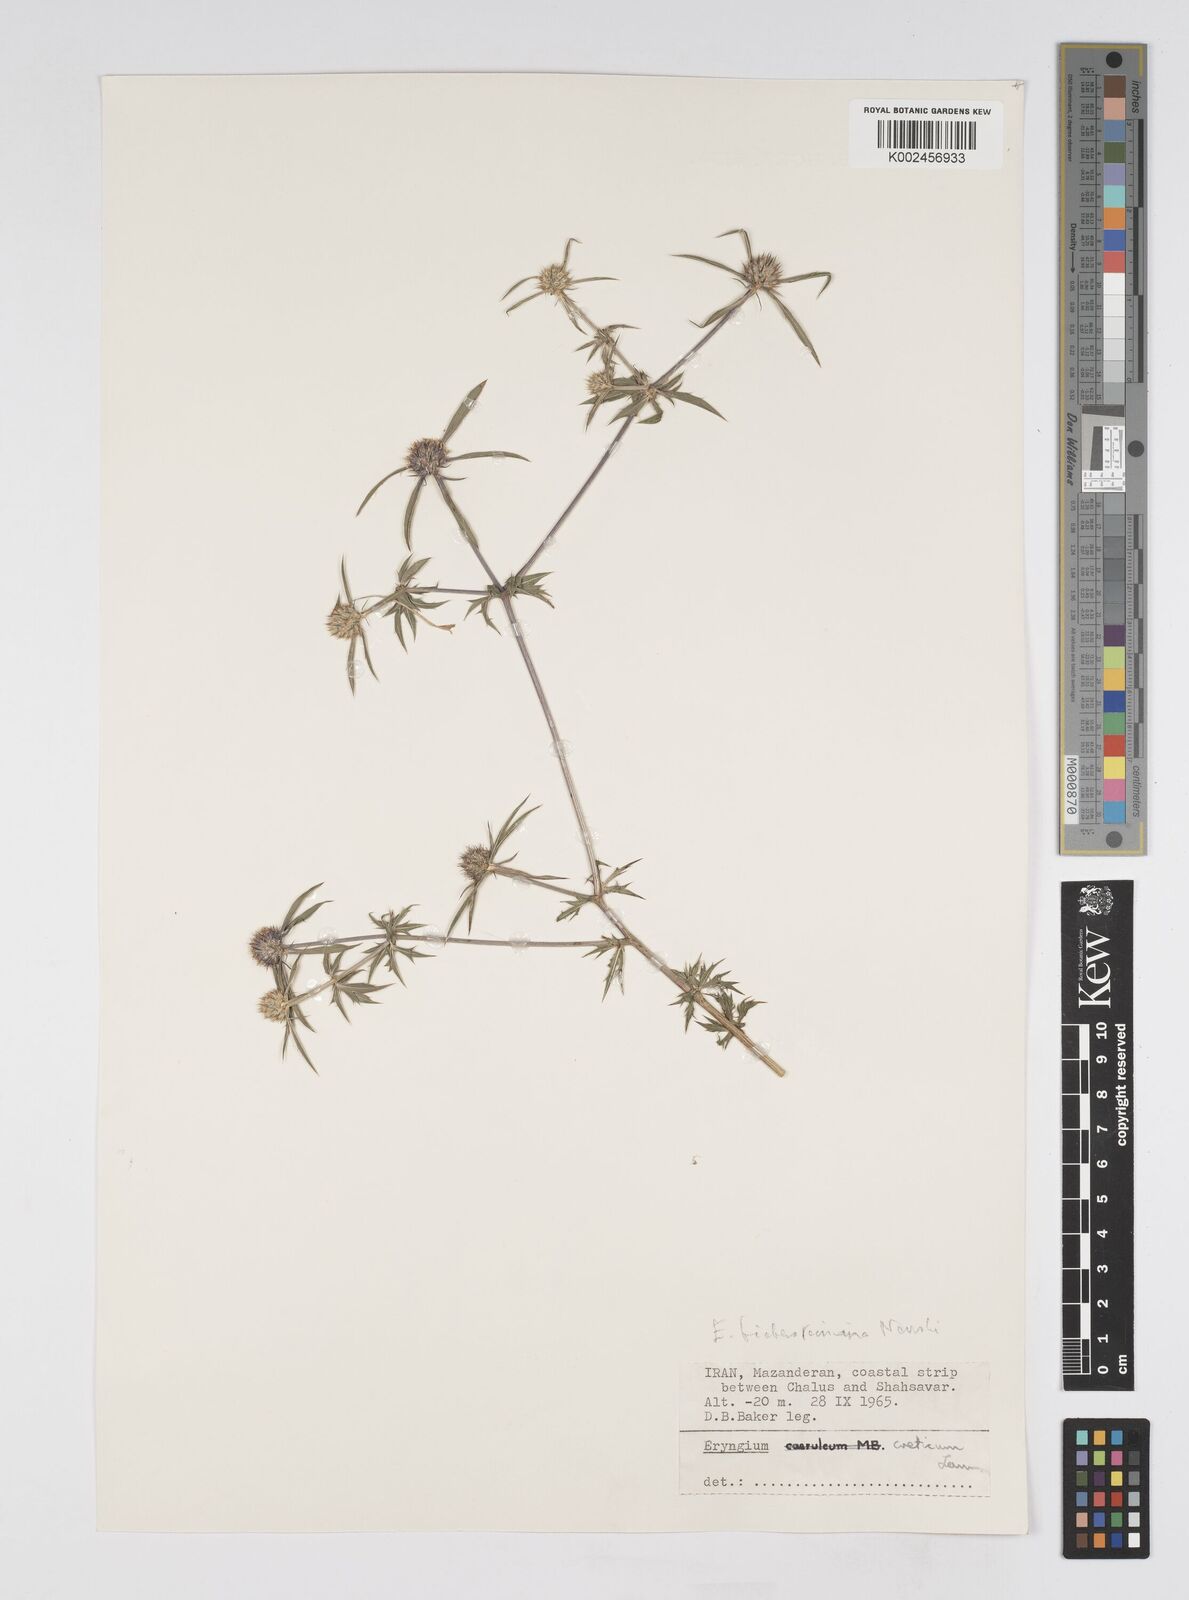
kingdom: Plantae
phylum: Tracheophyta
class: Magnoliopsida
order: Apiales
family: Apiaceae
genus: Eryngium
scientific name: Eryngium caeruleum
